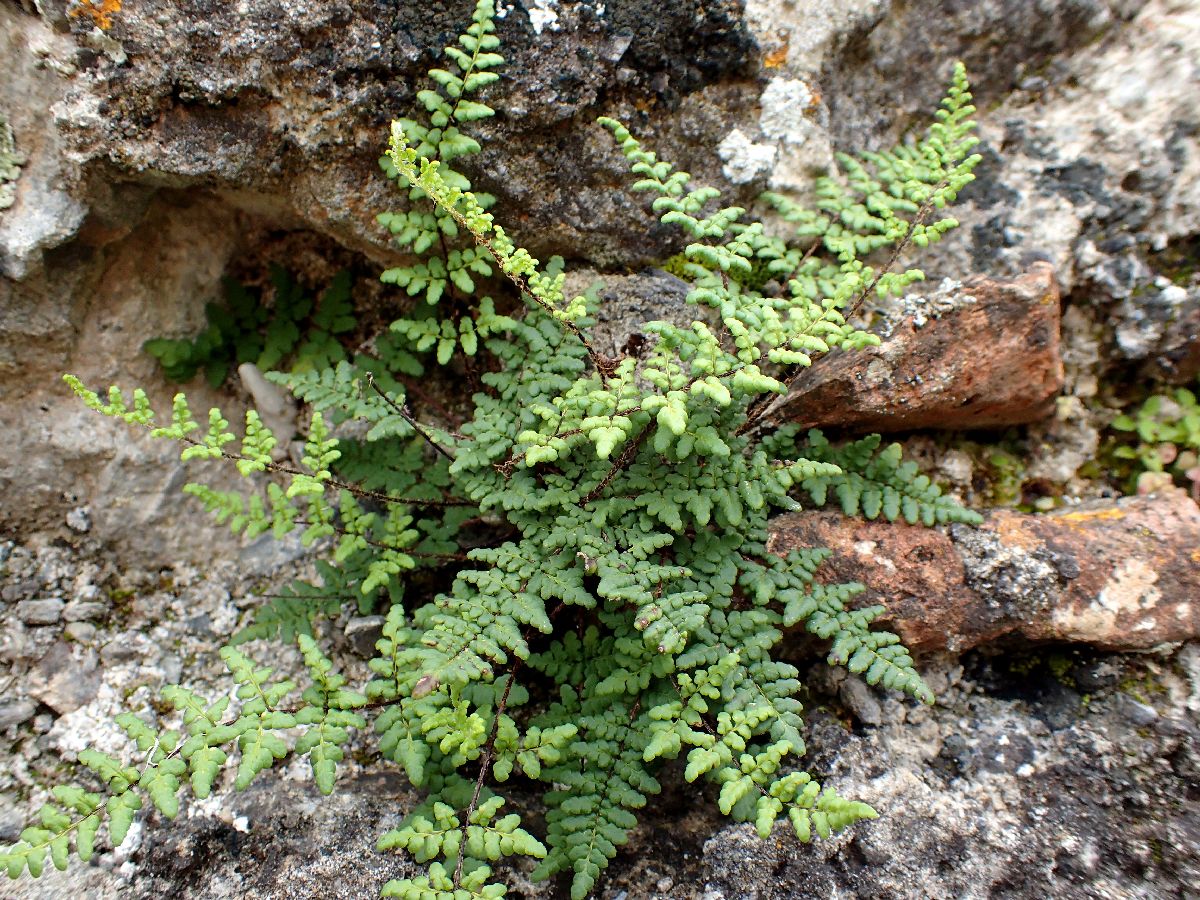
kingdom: Plantae
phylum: Tracheophyta
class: Polypodiopsida
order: Polypodiales
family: Pteridaceae
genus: Oeosporangium
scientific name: Oeosporangium pteridioides
